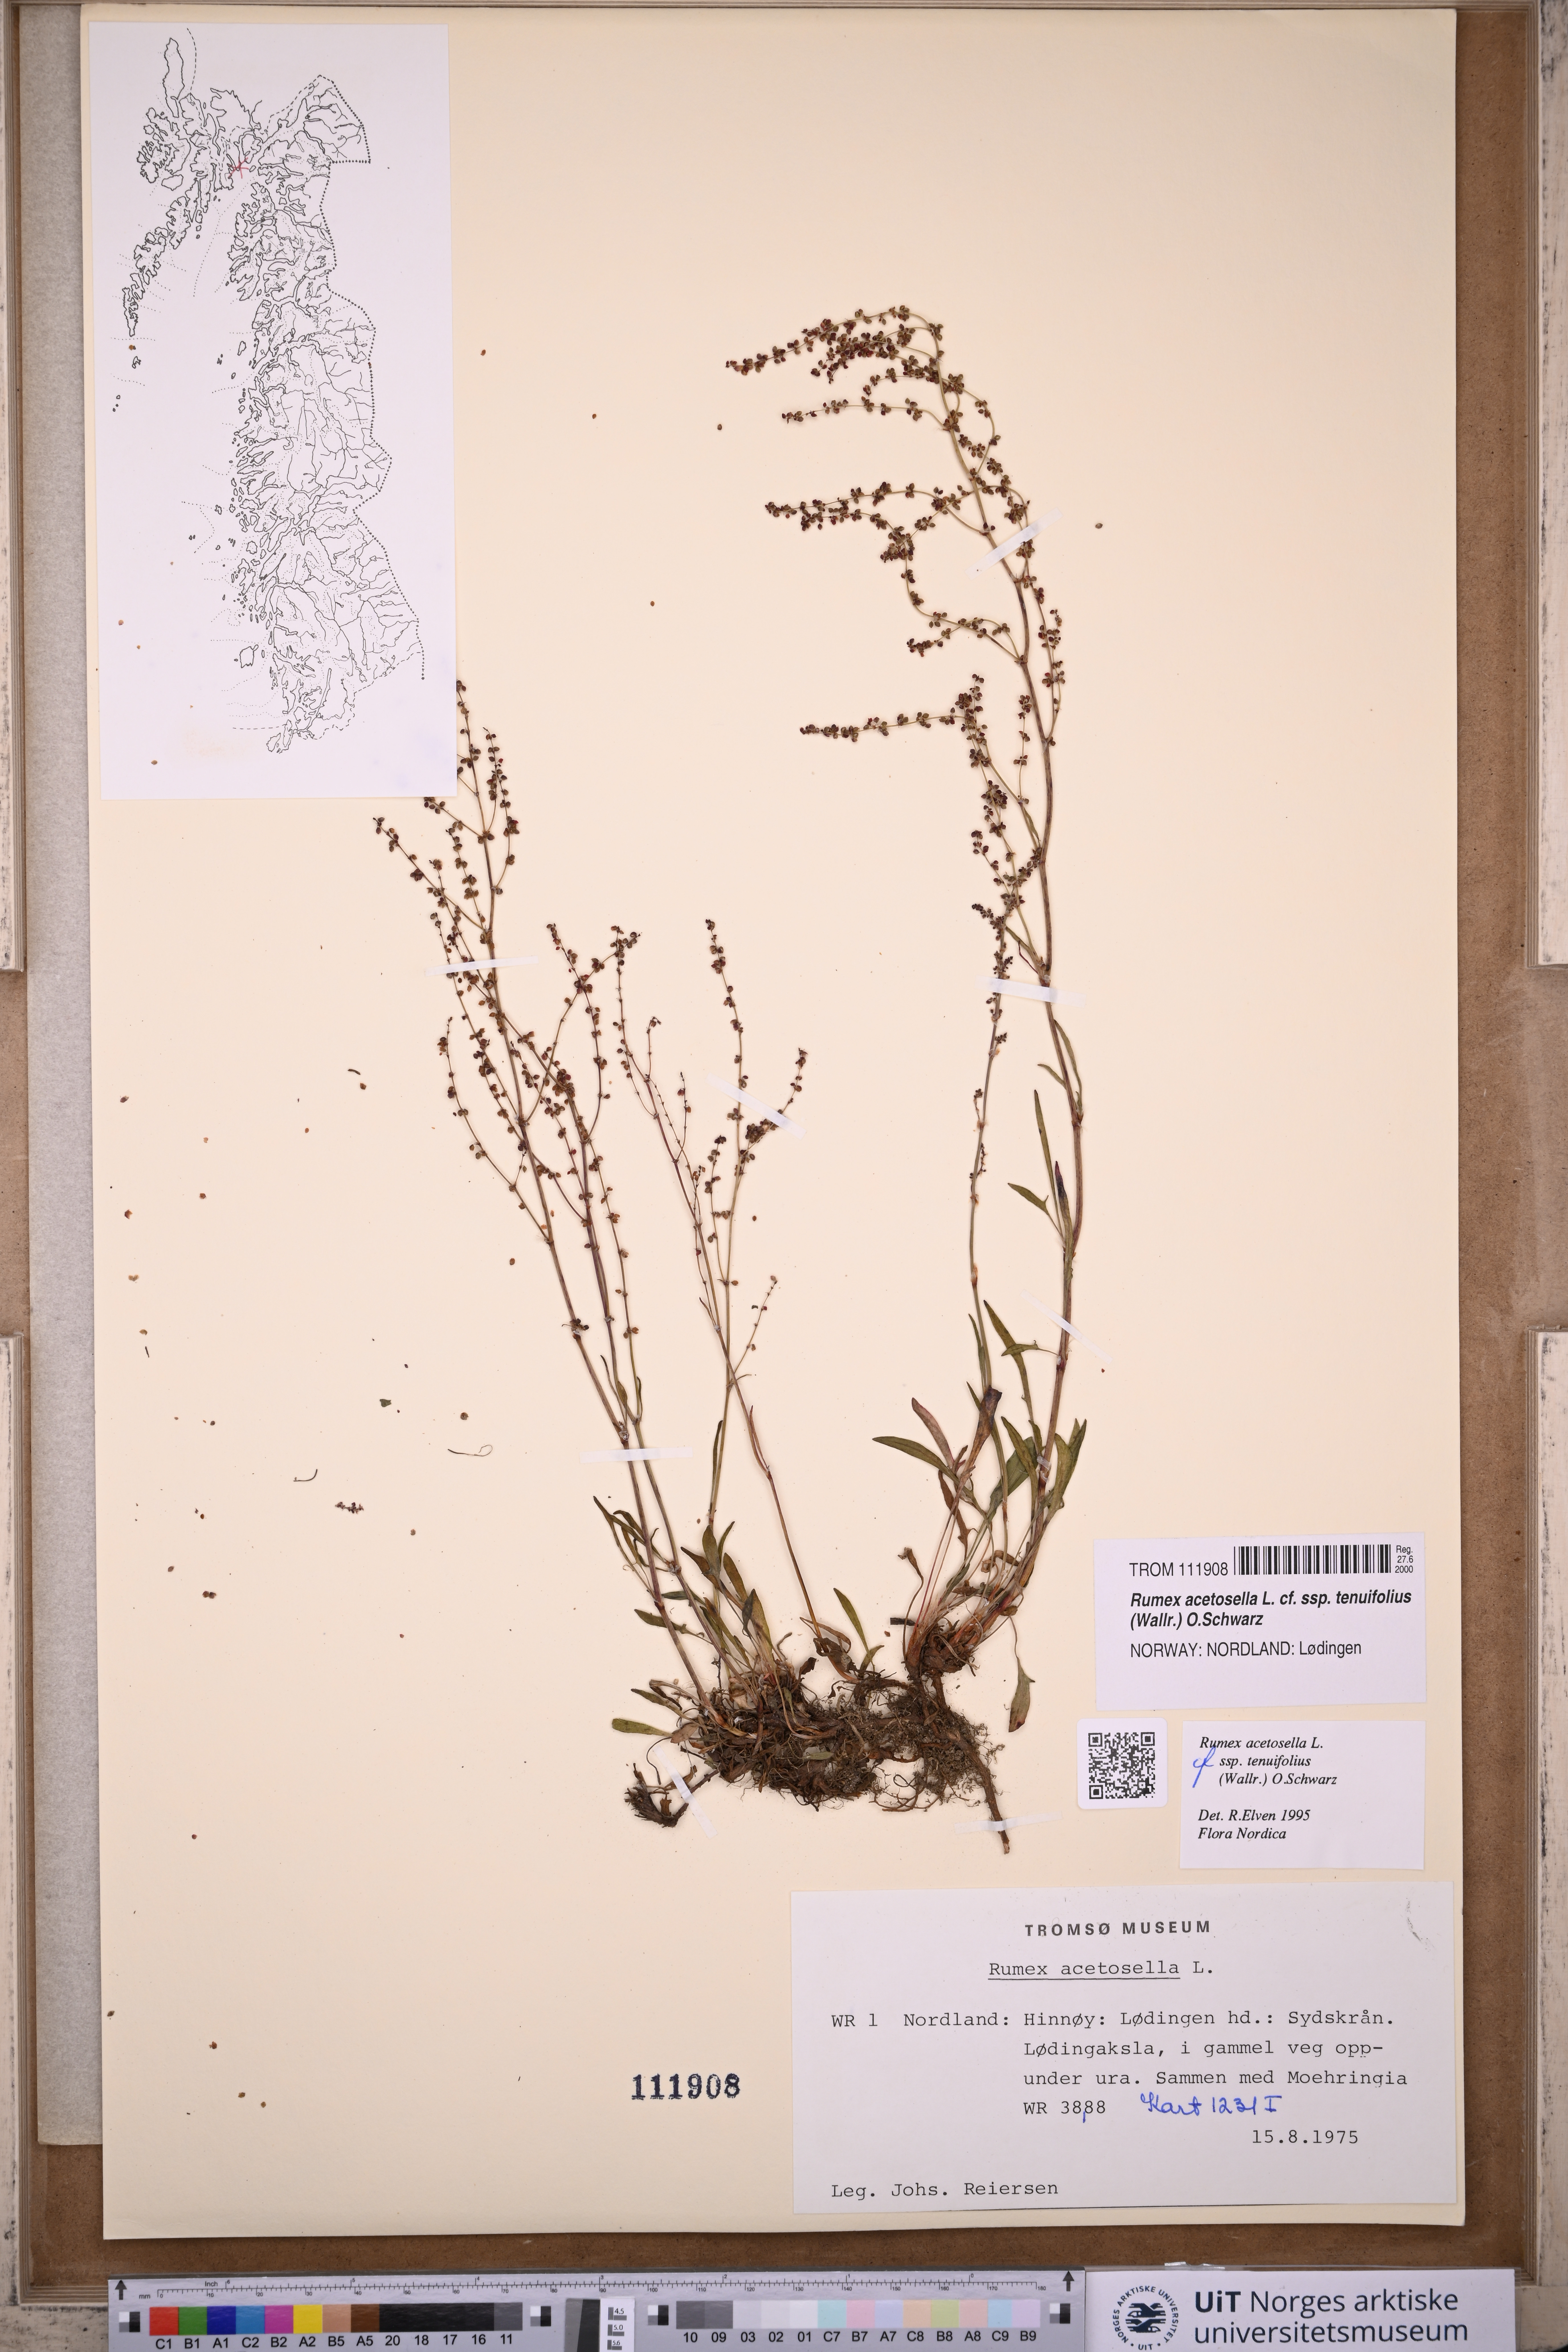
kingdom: Plantae
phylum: Tracheophyta
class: Magnoliopsida
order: Caryophyllales
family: Polygonaceae
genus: Rumex
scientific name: Rumex acetosella
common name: Common sheep sorrel
